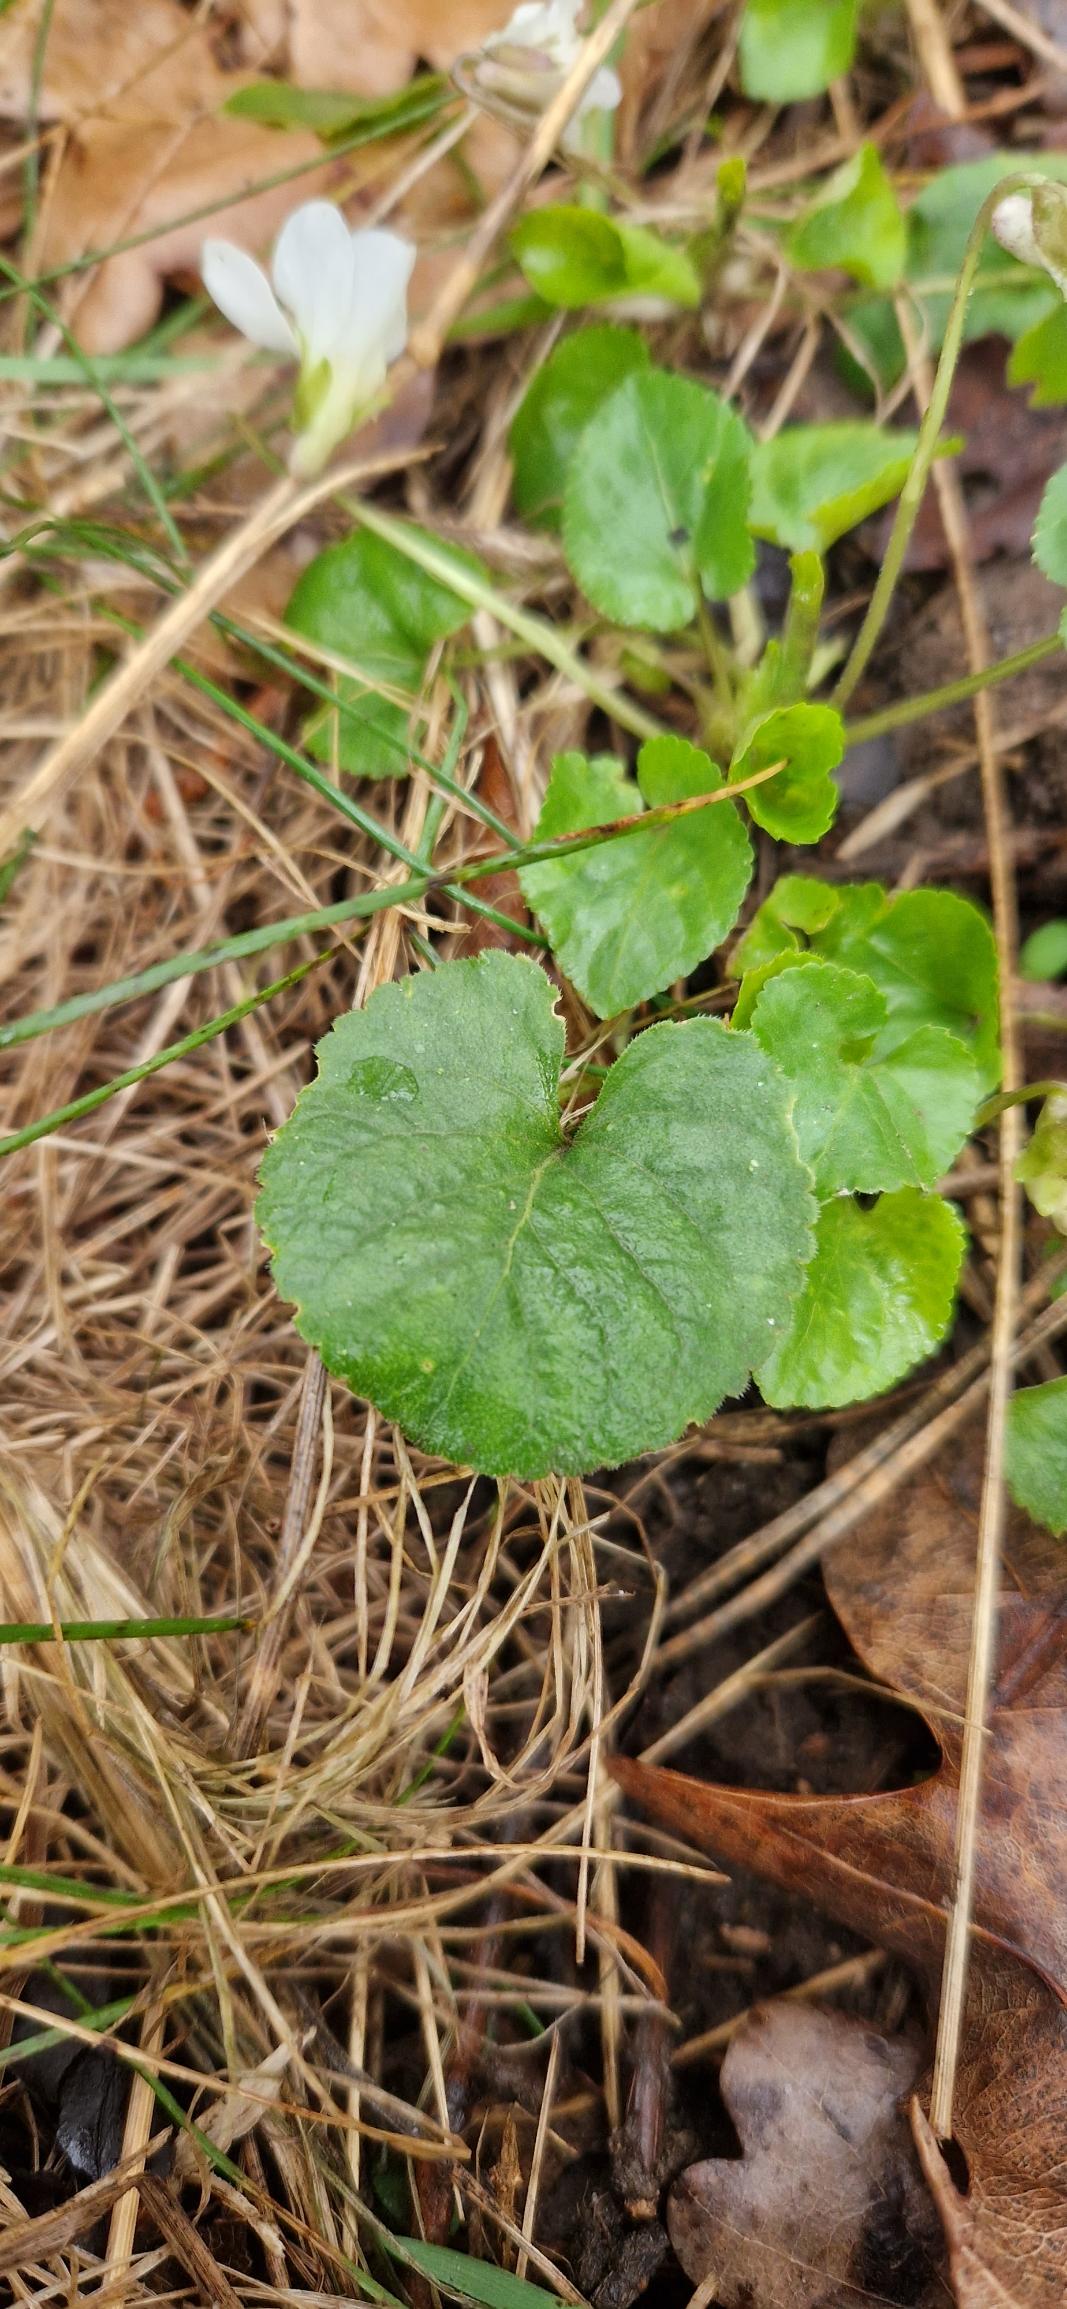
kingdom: Plantae
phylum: Tracheophyta
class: Magnoliopsida
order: Malpighiales
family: Violaceae
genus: Viola
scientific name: Viola odorata
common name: Marts-viol
